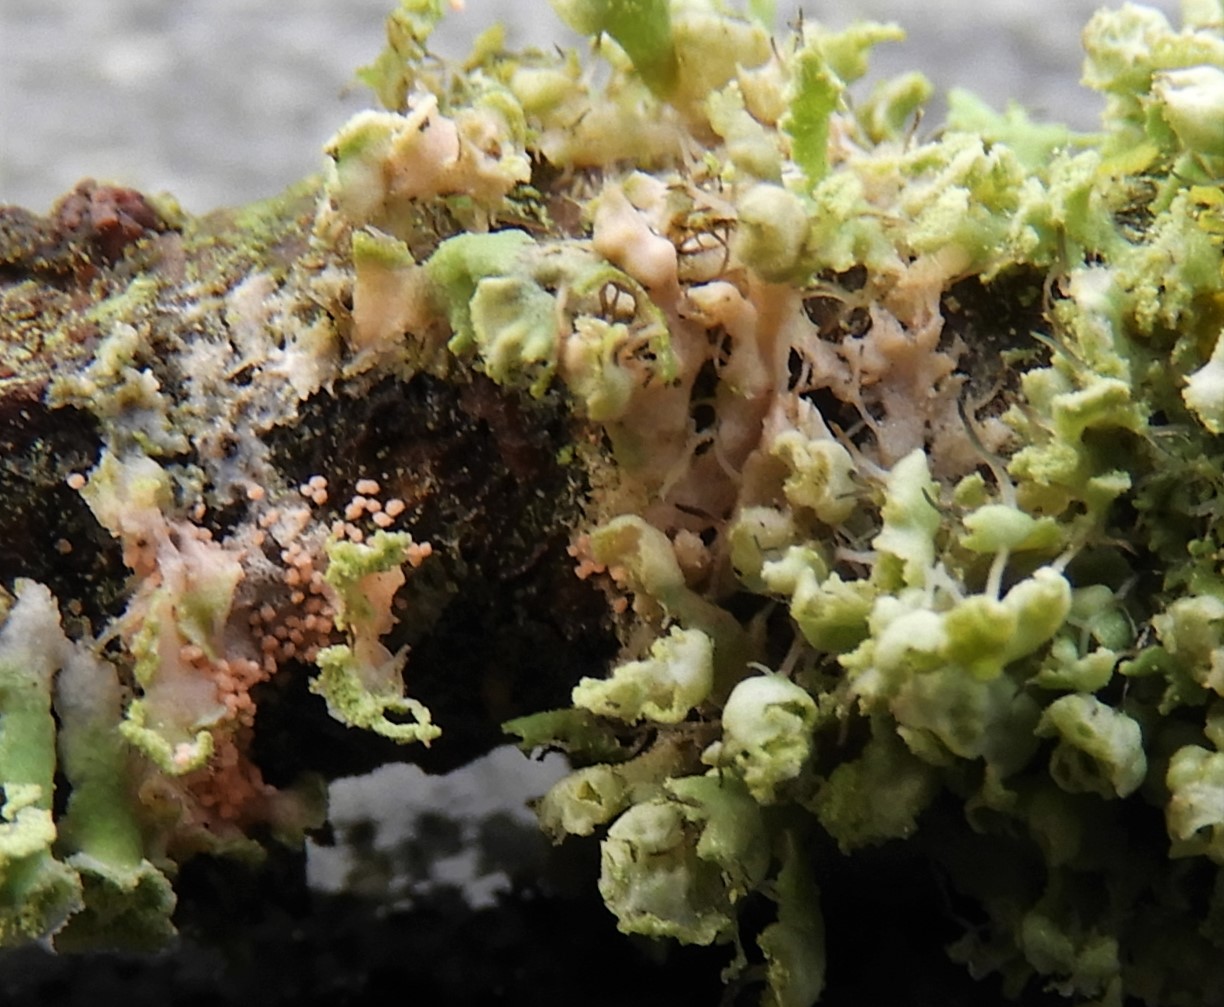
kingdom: Fungi
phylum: Basidiomycota
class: Agaricomycetes
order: Corticiales
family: Corticiaceae
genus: Erythricium
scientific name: Erythricium aurantiacum
